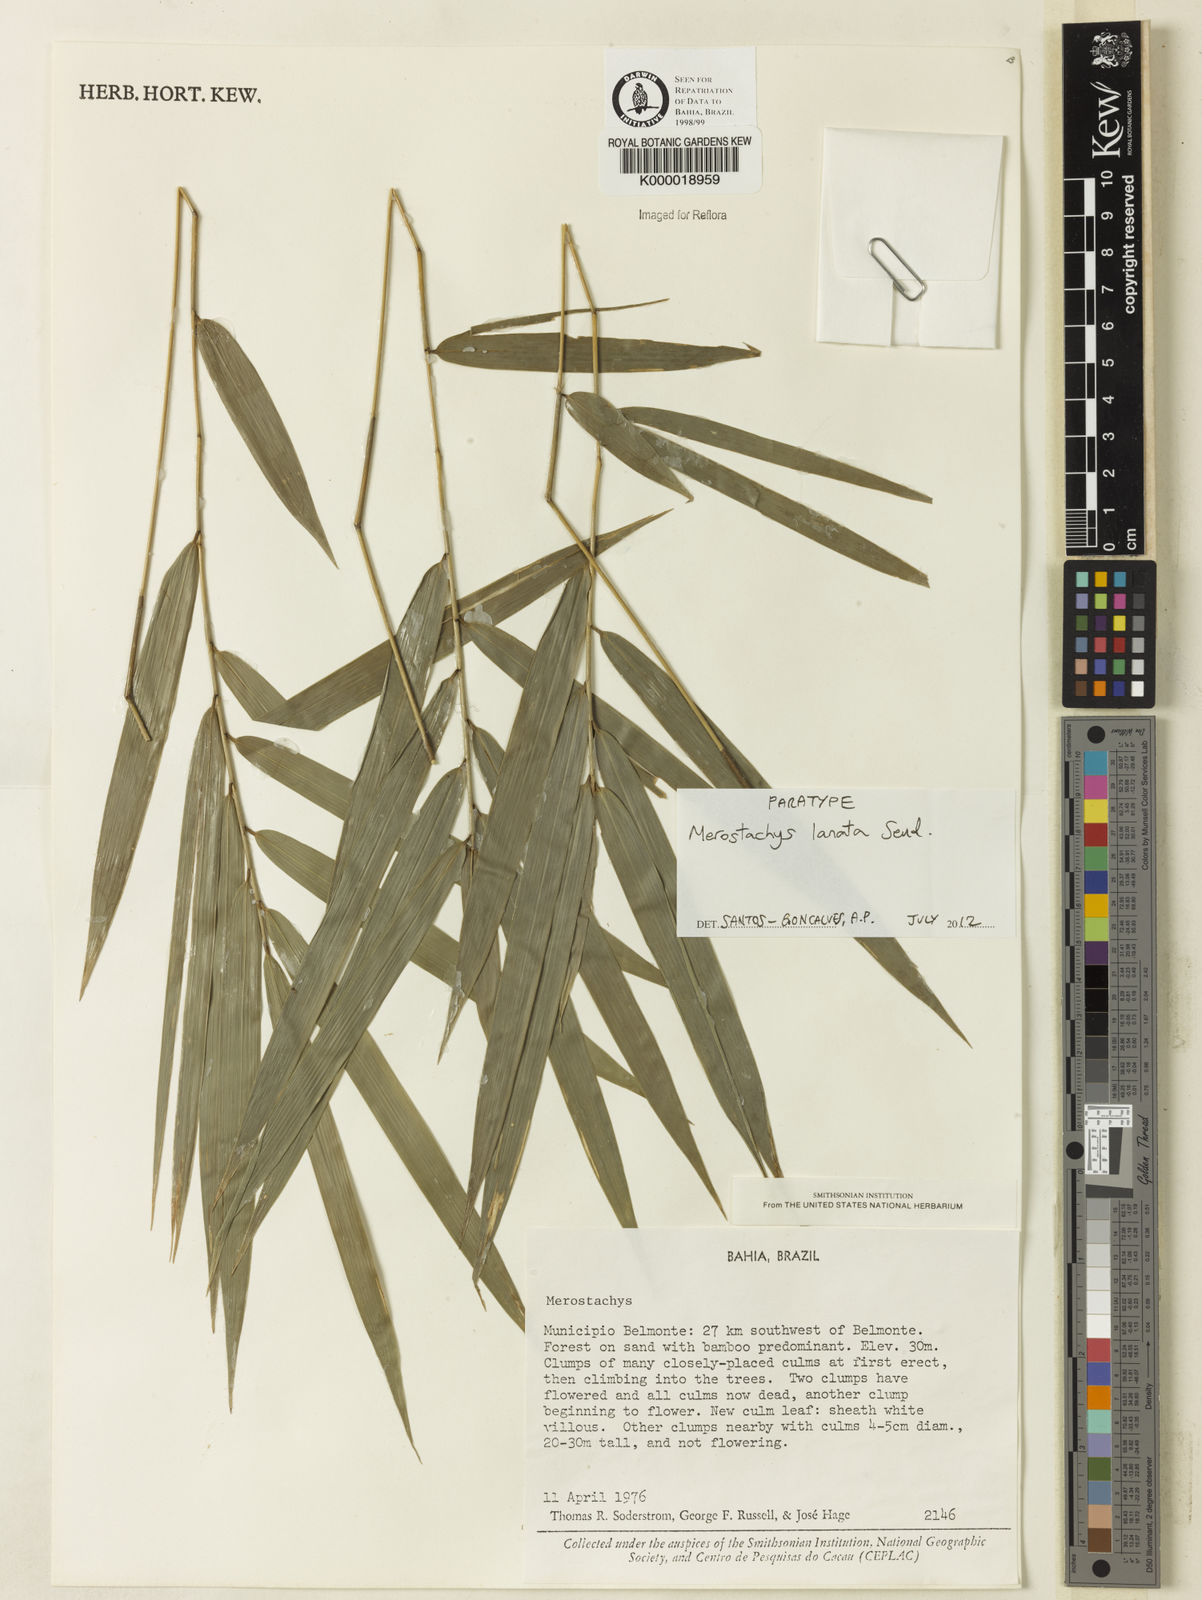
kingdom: Plantae
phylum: Tracheophyta
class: Liliopsida
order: Poales
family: Poaceae
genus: Merostachys
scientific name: Merostachys lanata
